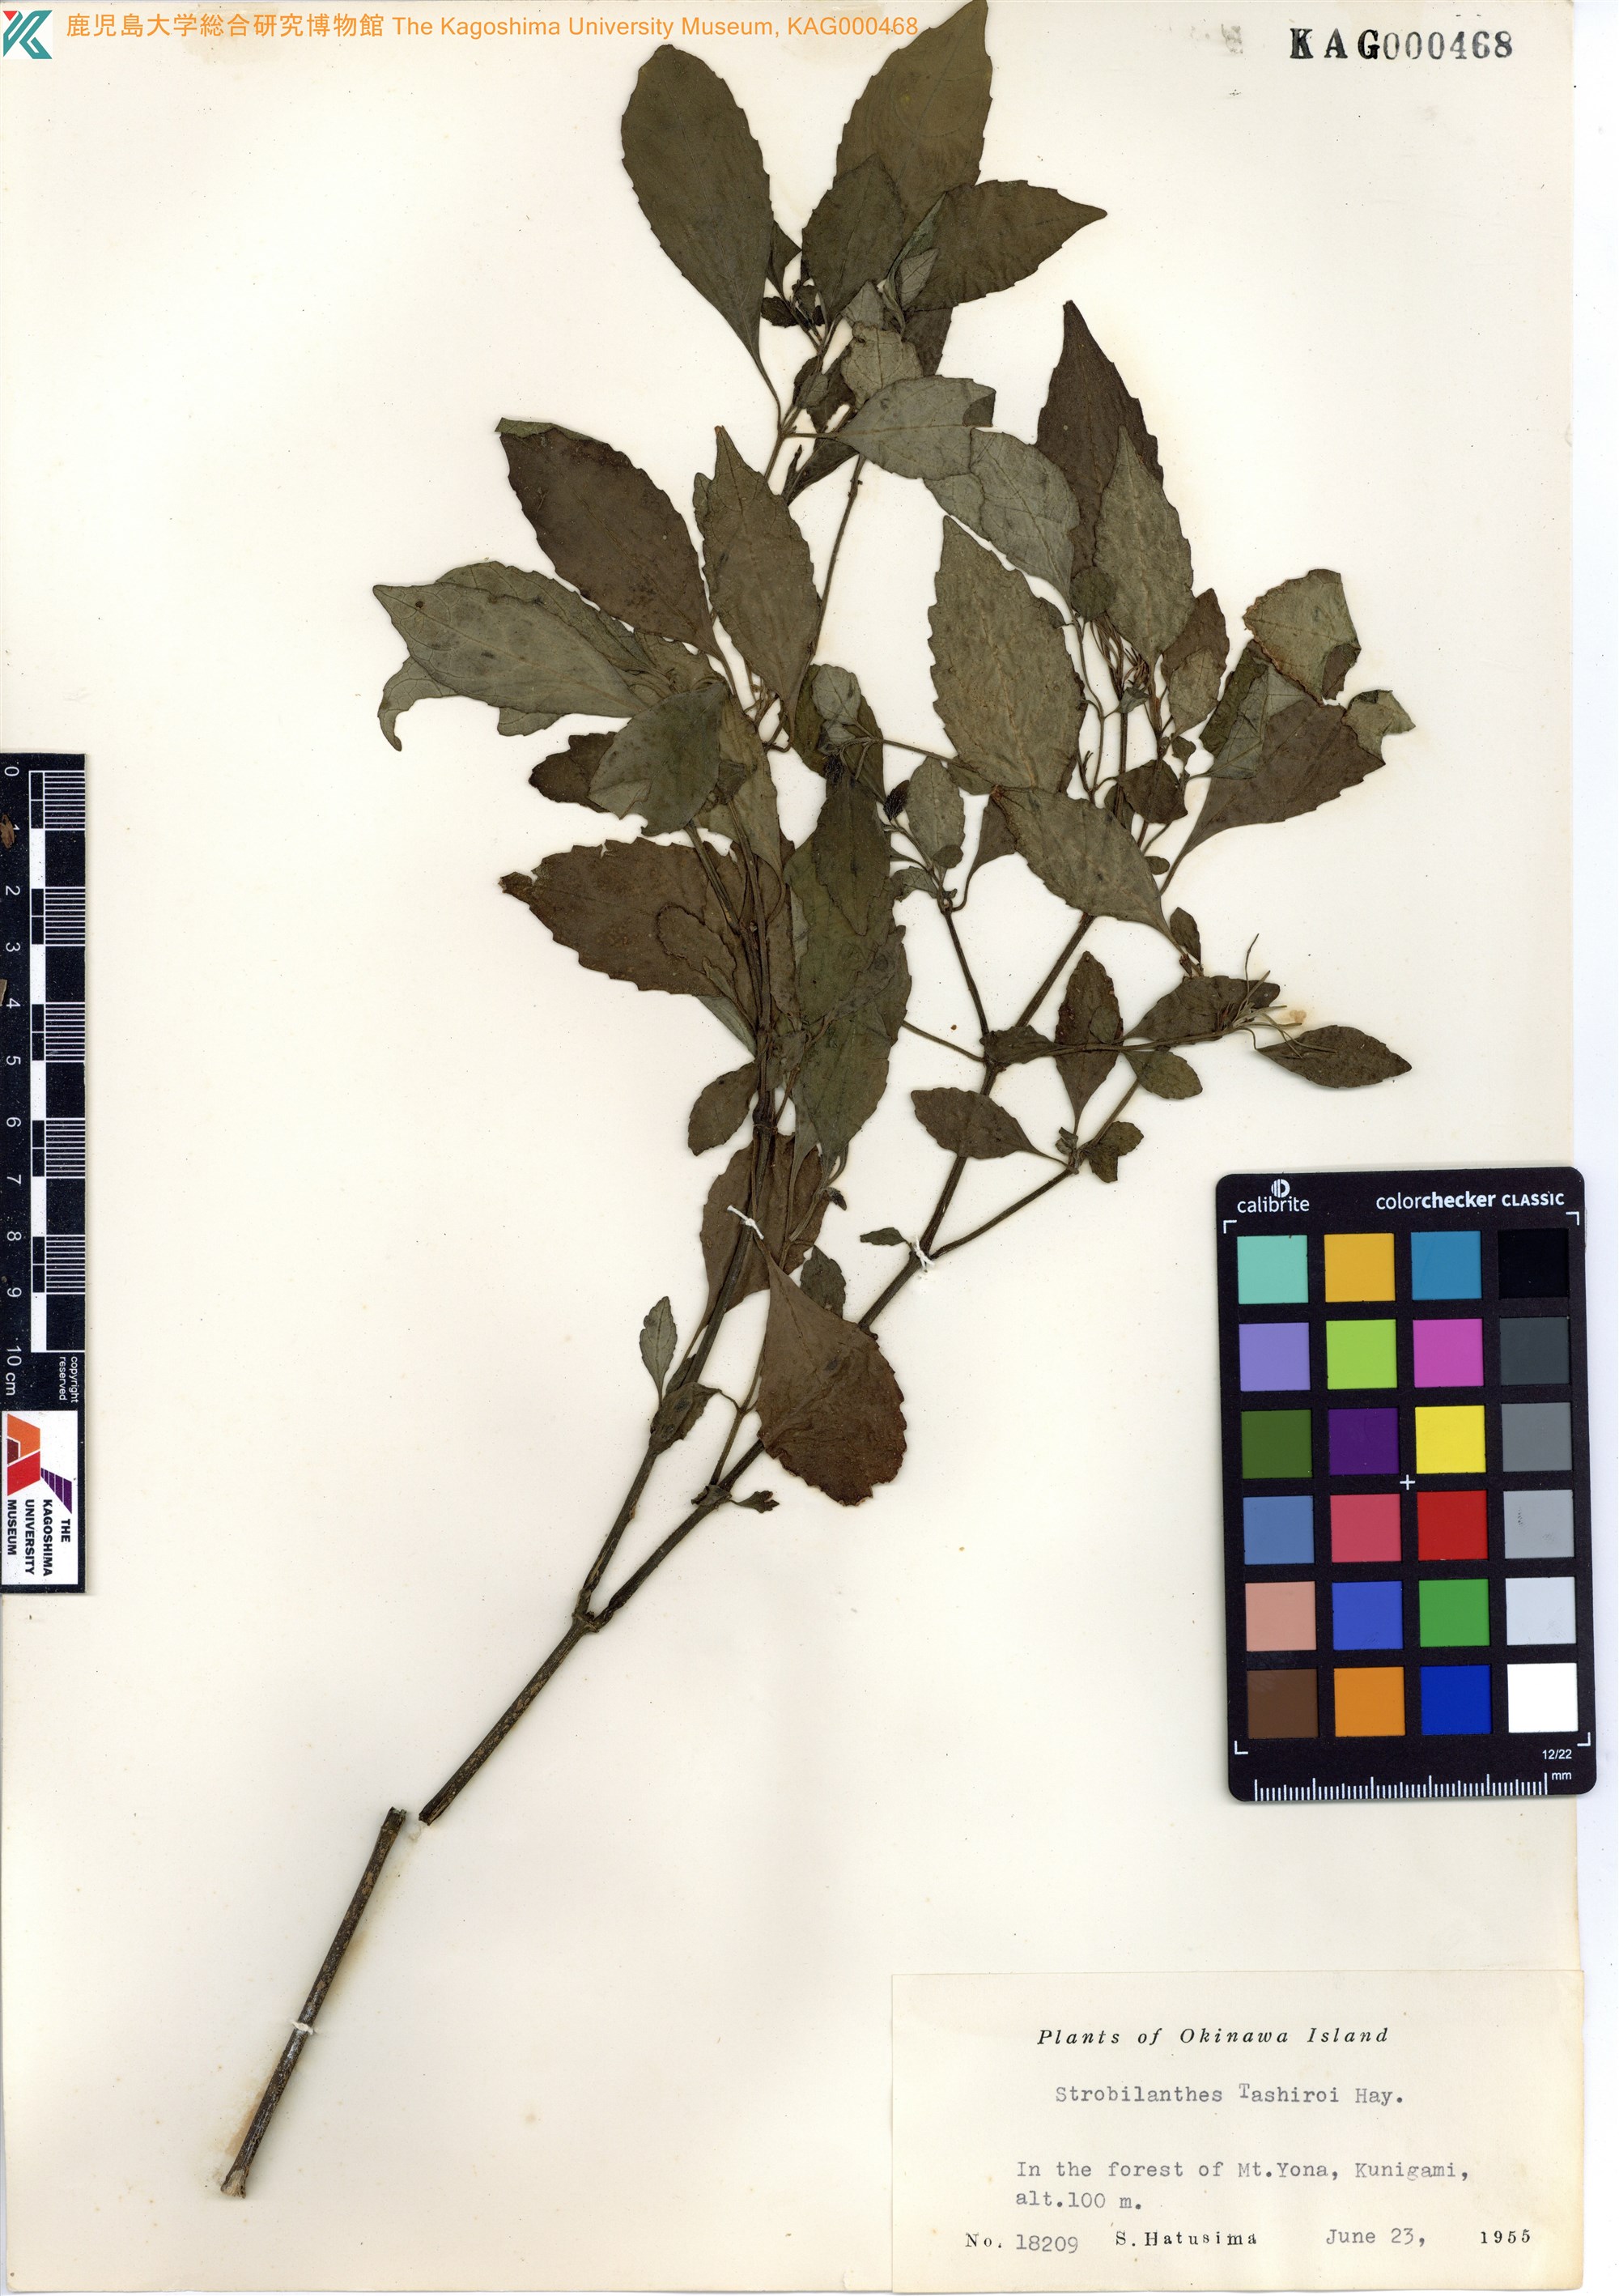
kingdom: Plantae
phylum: Tracheophyta
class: Magnoliopsida
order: Lamiales
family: Acanthaceae
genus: Strobilanthes
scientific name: Strobilanthes flexicaulis
